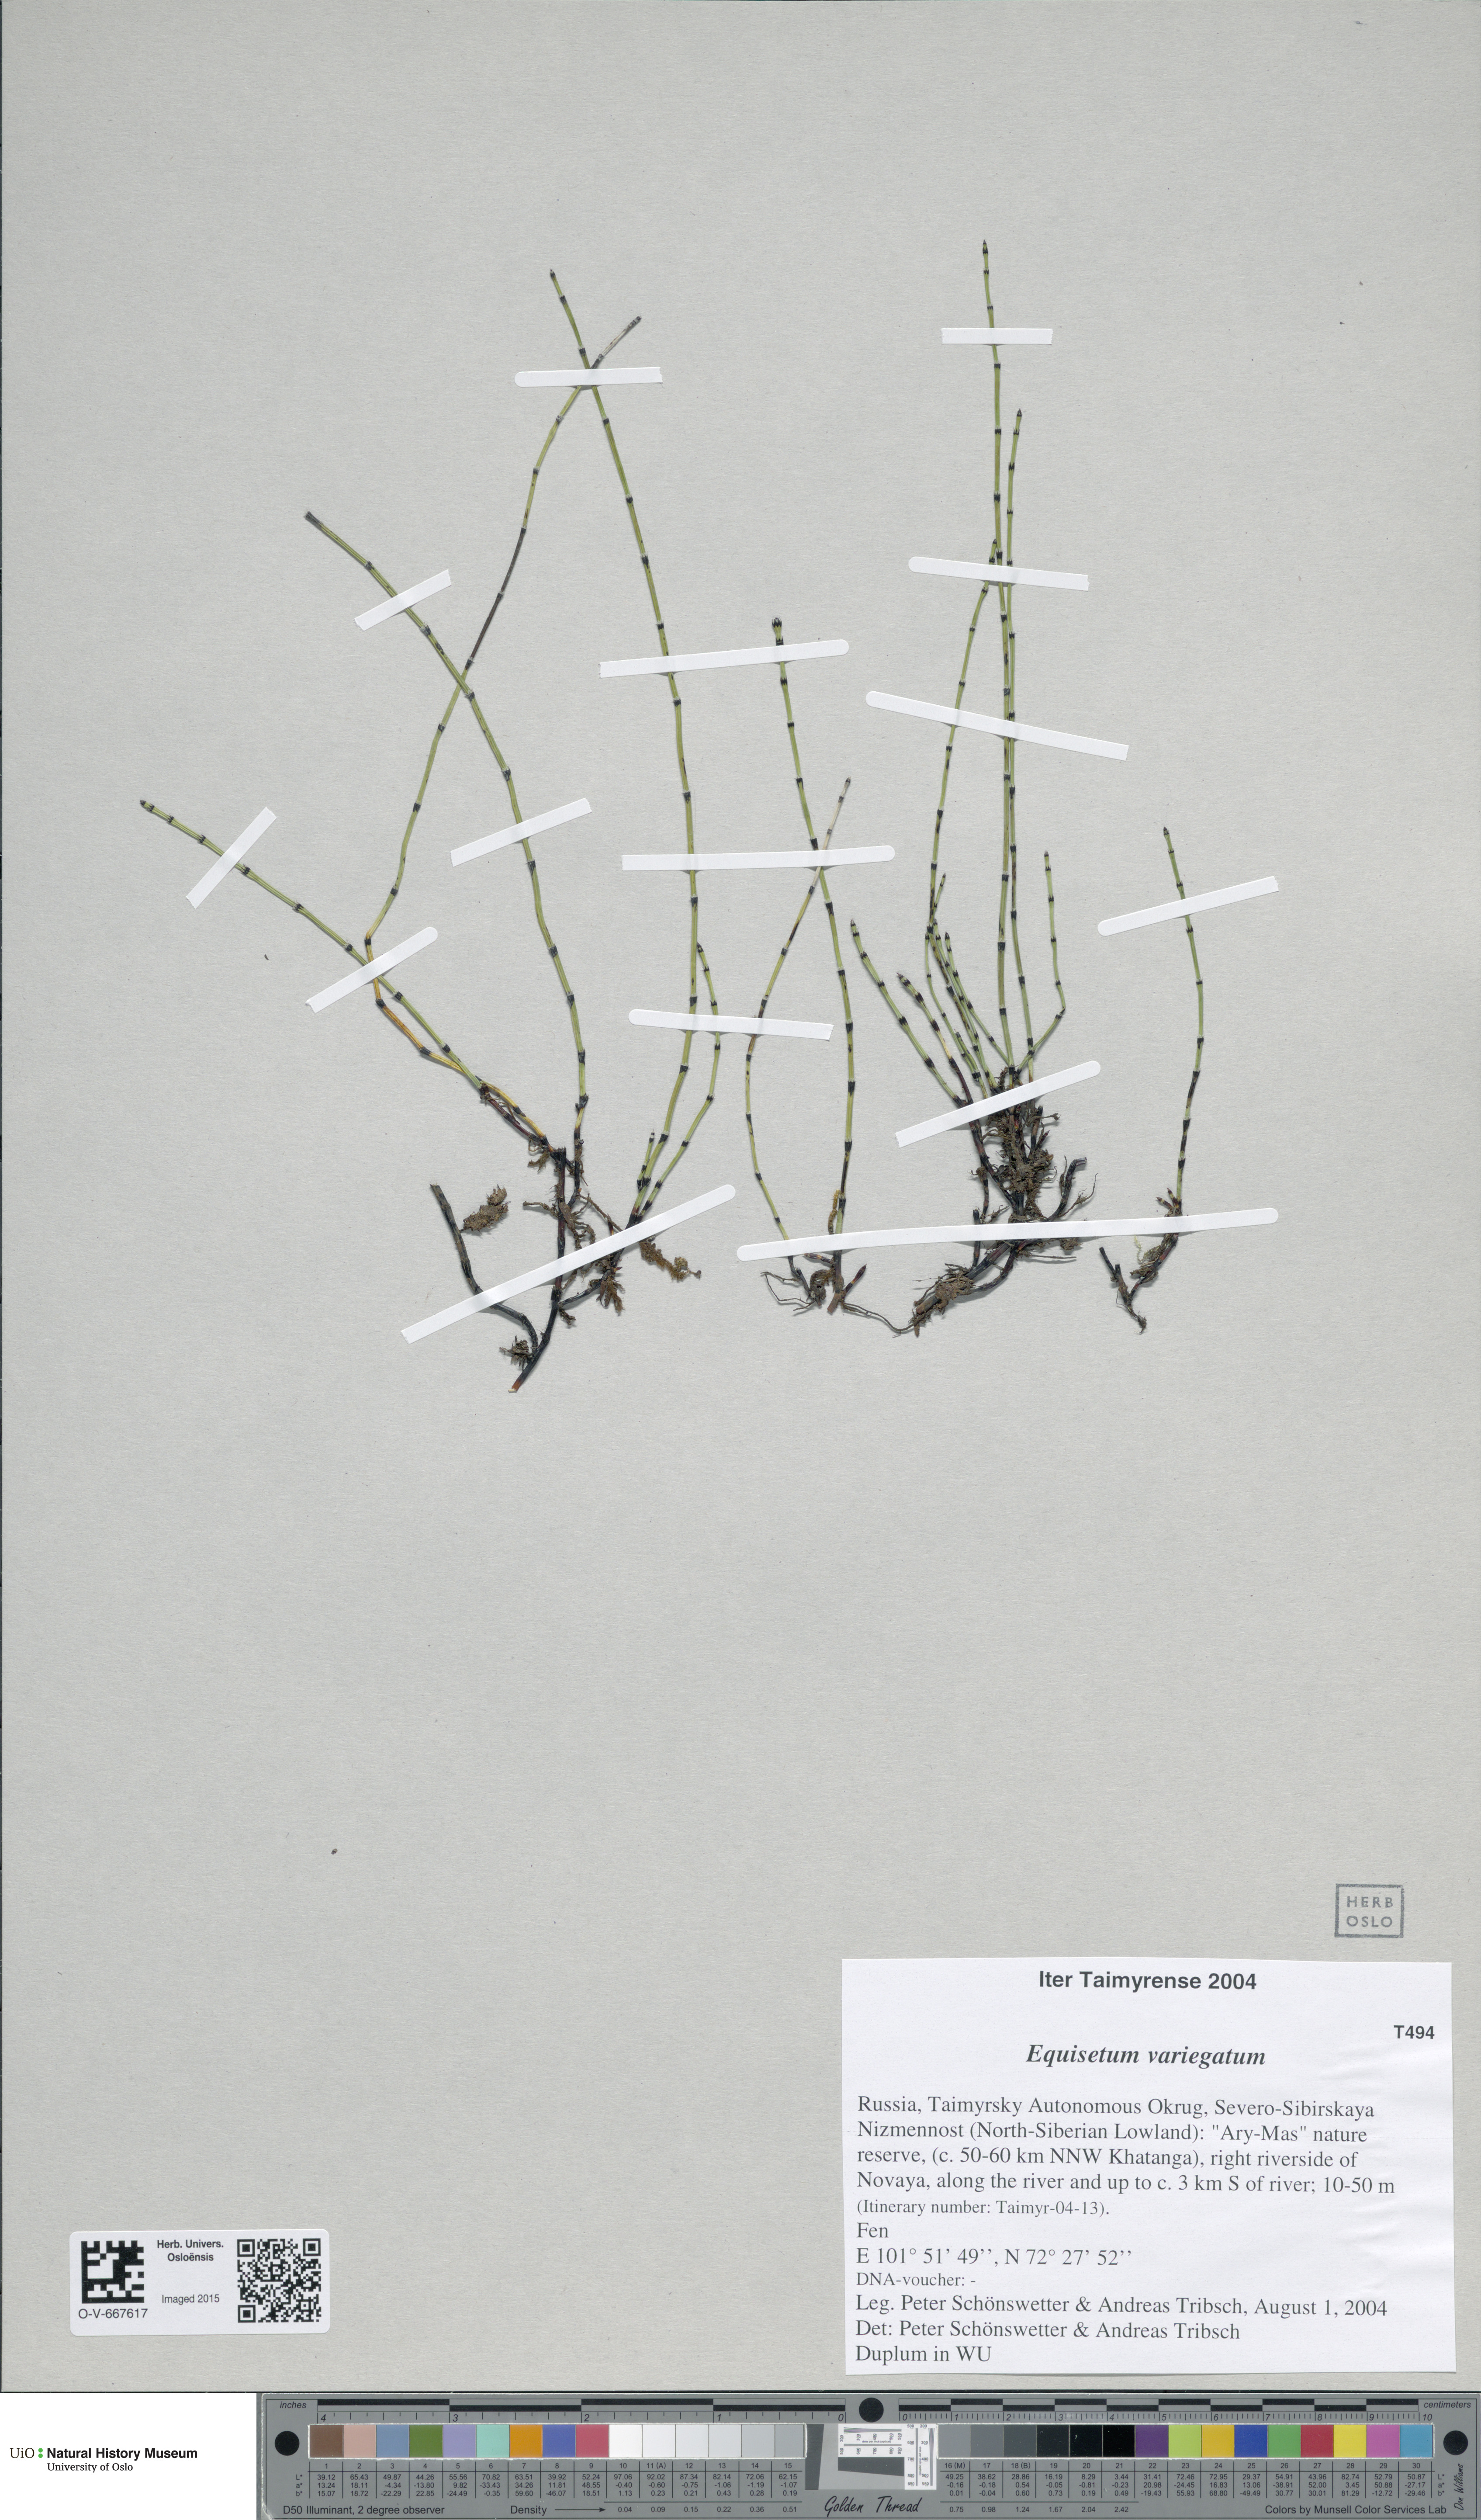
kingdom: Plantae
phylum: Tracheophyta
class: Polypodiopsida
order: Equisetales
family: Equisetaceae
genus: Equisetum
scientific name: Equisetum variegatum
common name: Variegated horsetail
